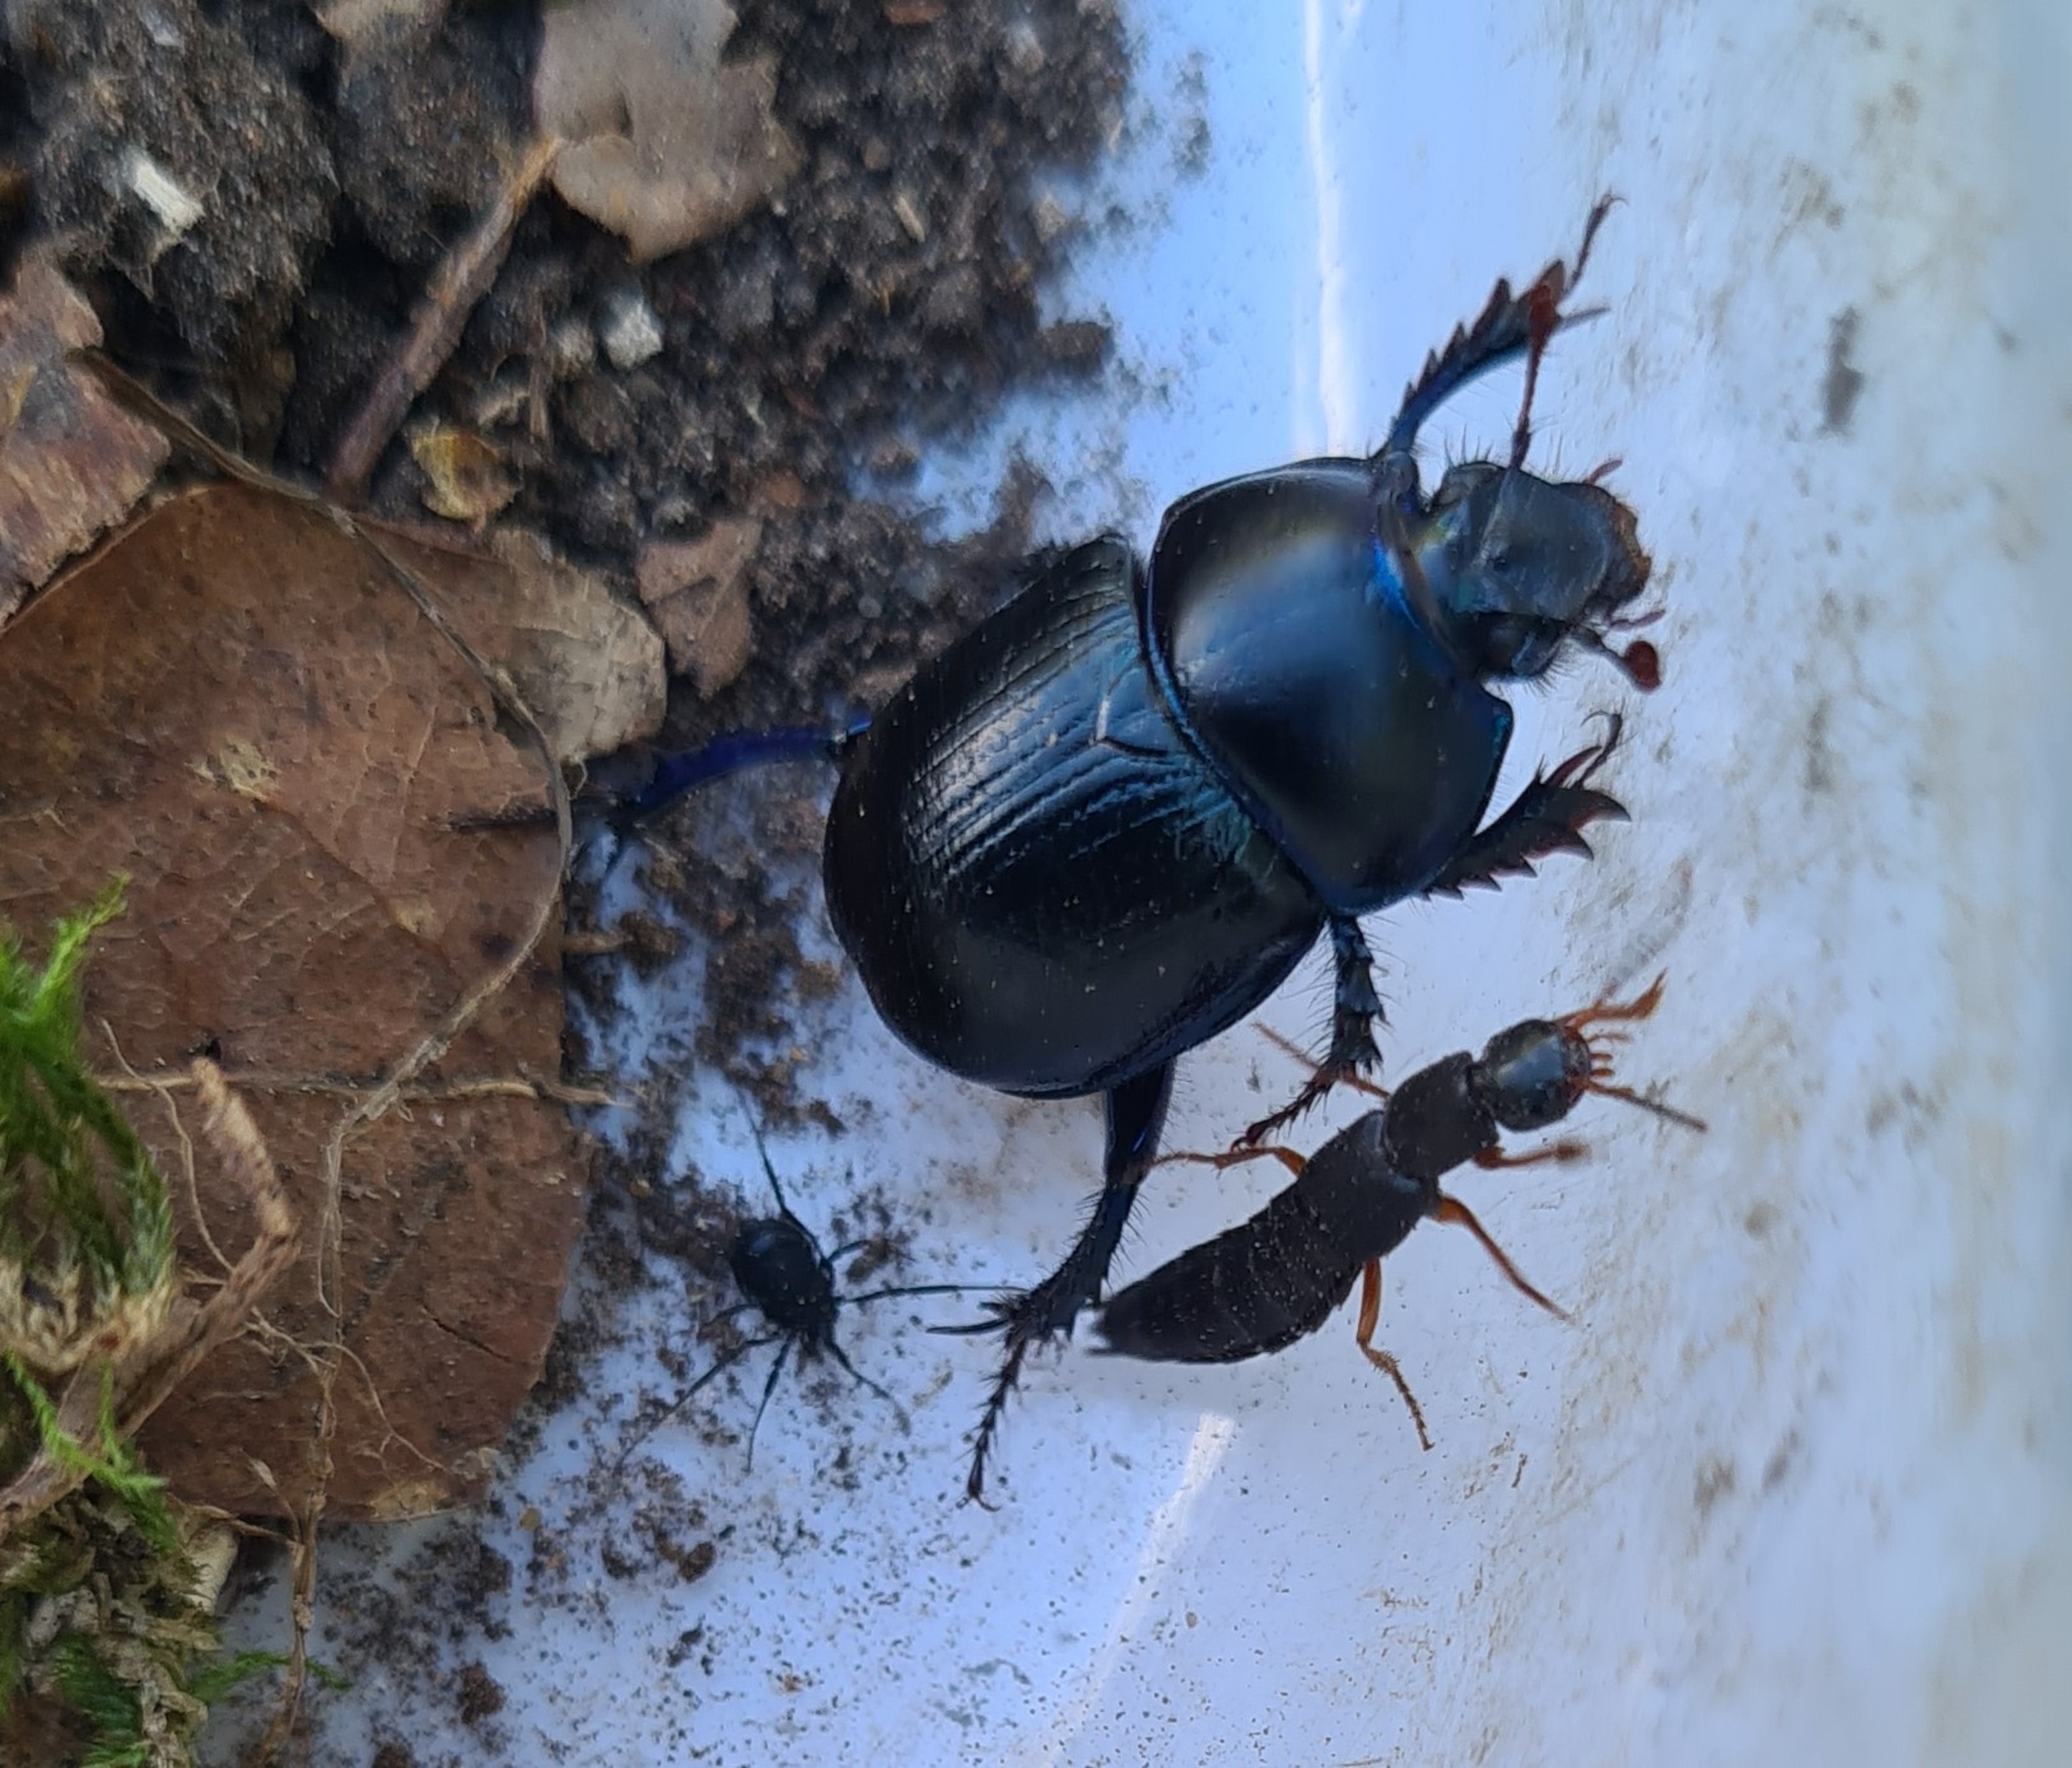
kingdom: Animalia
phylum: Arthropoda
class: Insecta
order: Coleoptera
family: Geotrupidae
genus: Anoplotrupes
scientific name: Anoplotrupes stercorosus
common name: Skovskarnbasse
